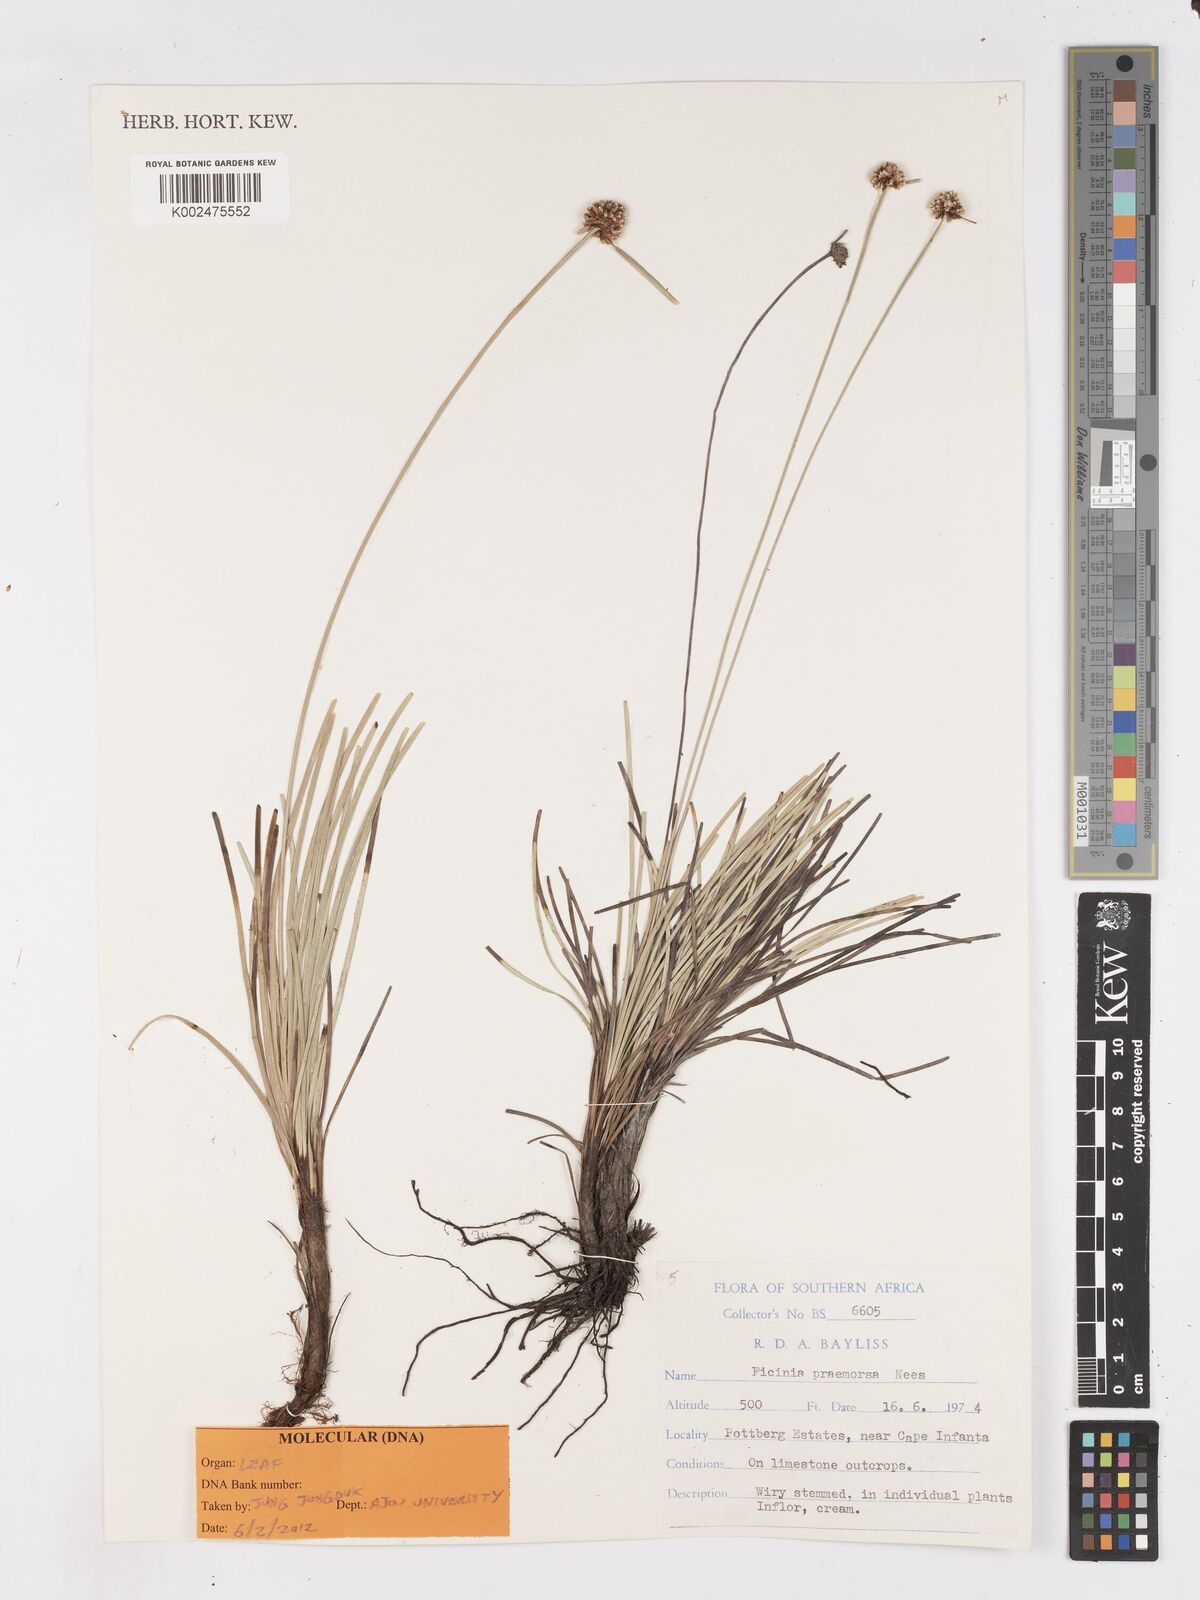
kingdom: Plantae
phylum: Tracheophyta
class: Liliopsida
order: Poales
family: Cyperaceae
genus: Ficinia
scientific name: Ficinia praemorsa
